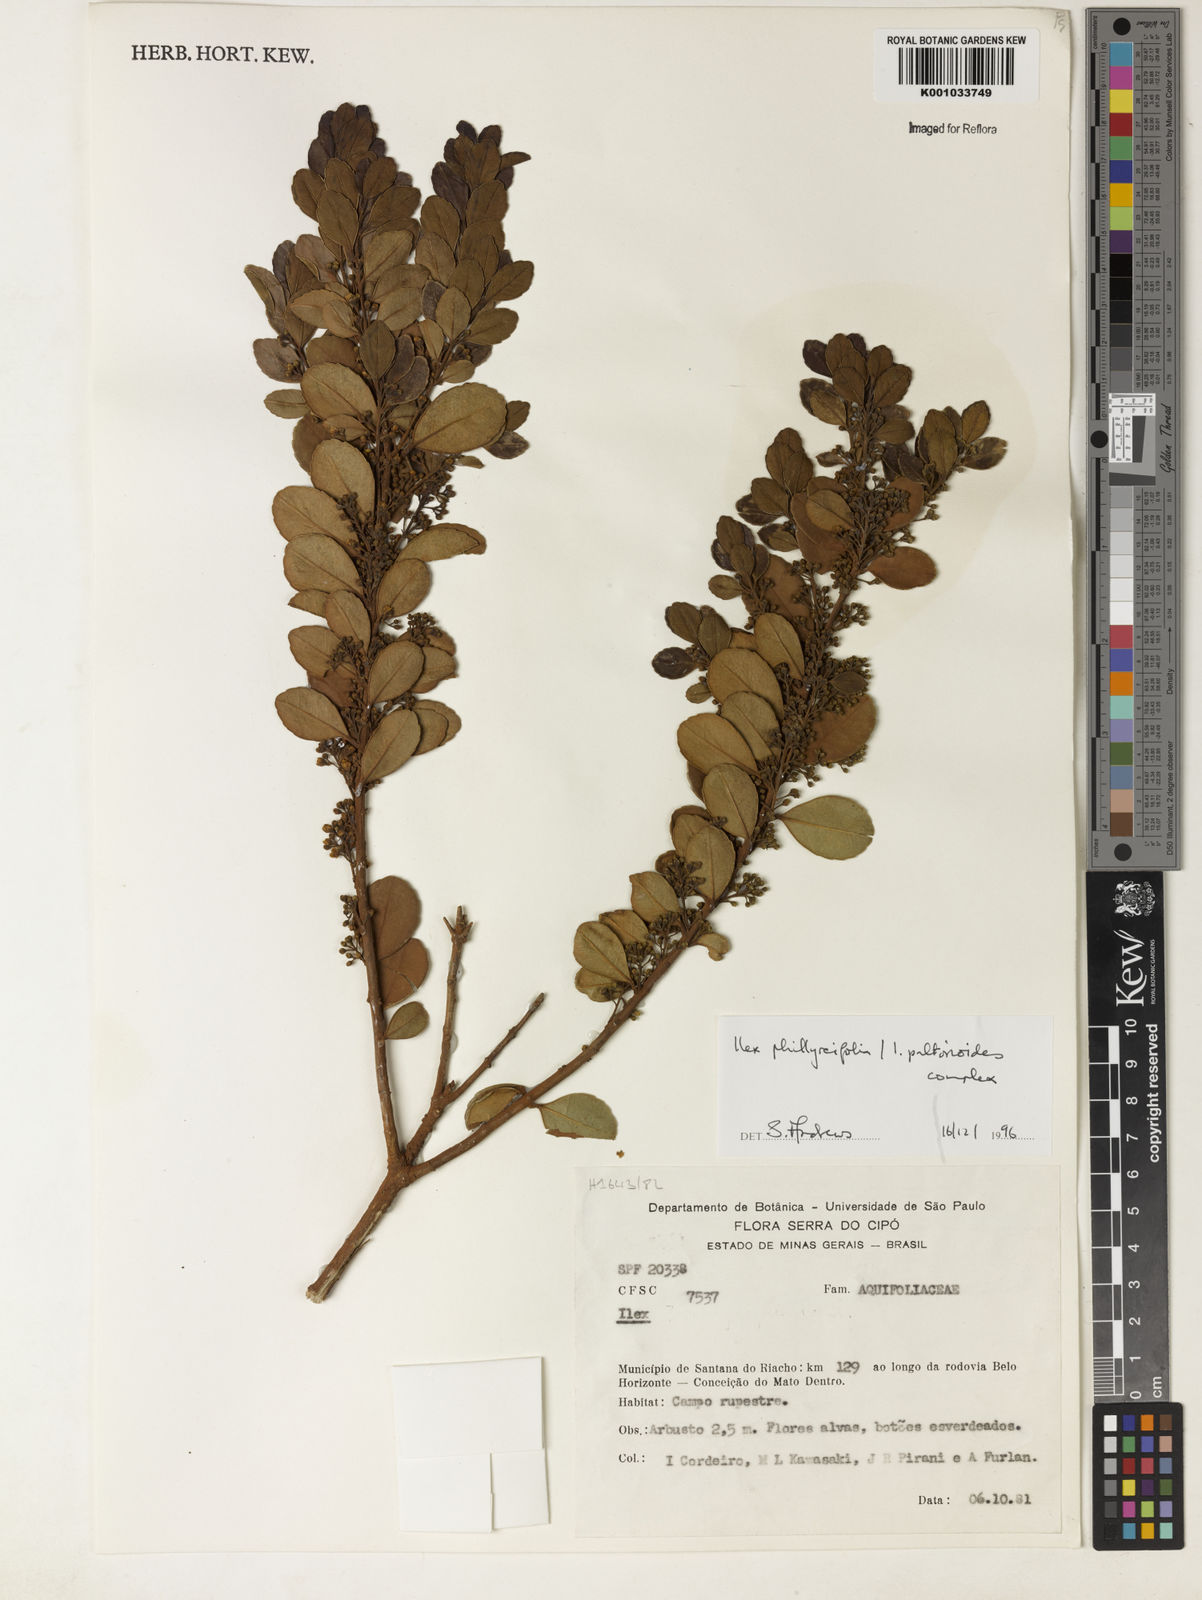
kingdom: Plantae
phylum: Tracheophyta
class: Magnoliopsida
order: Aquifoliales
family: Aquifoliaceae
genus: Ilex
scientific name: Ilex
